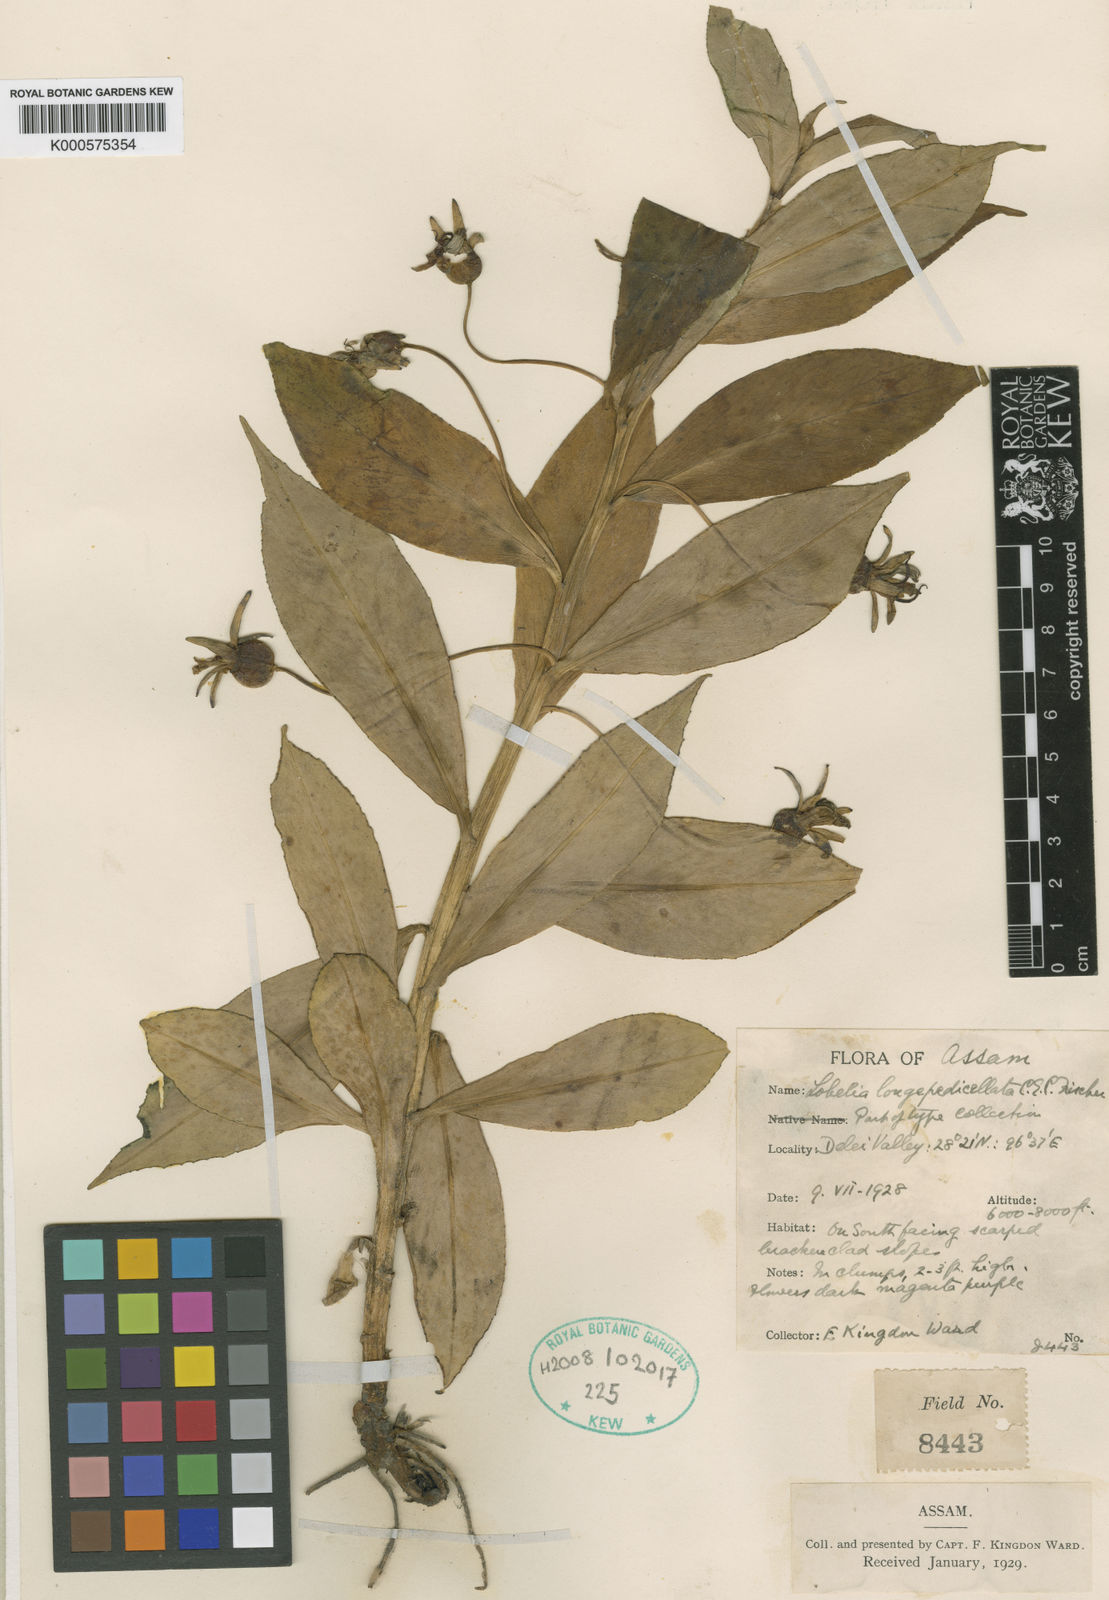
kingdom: Plantae
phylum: Tracheophyta
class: Magnoliopsida
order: Asterales
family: Campanulaceae
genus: Lobelia
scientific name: Lobelia
